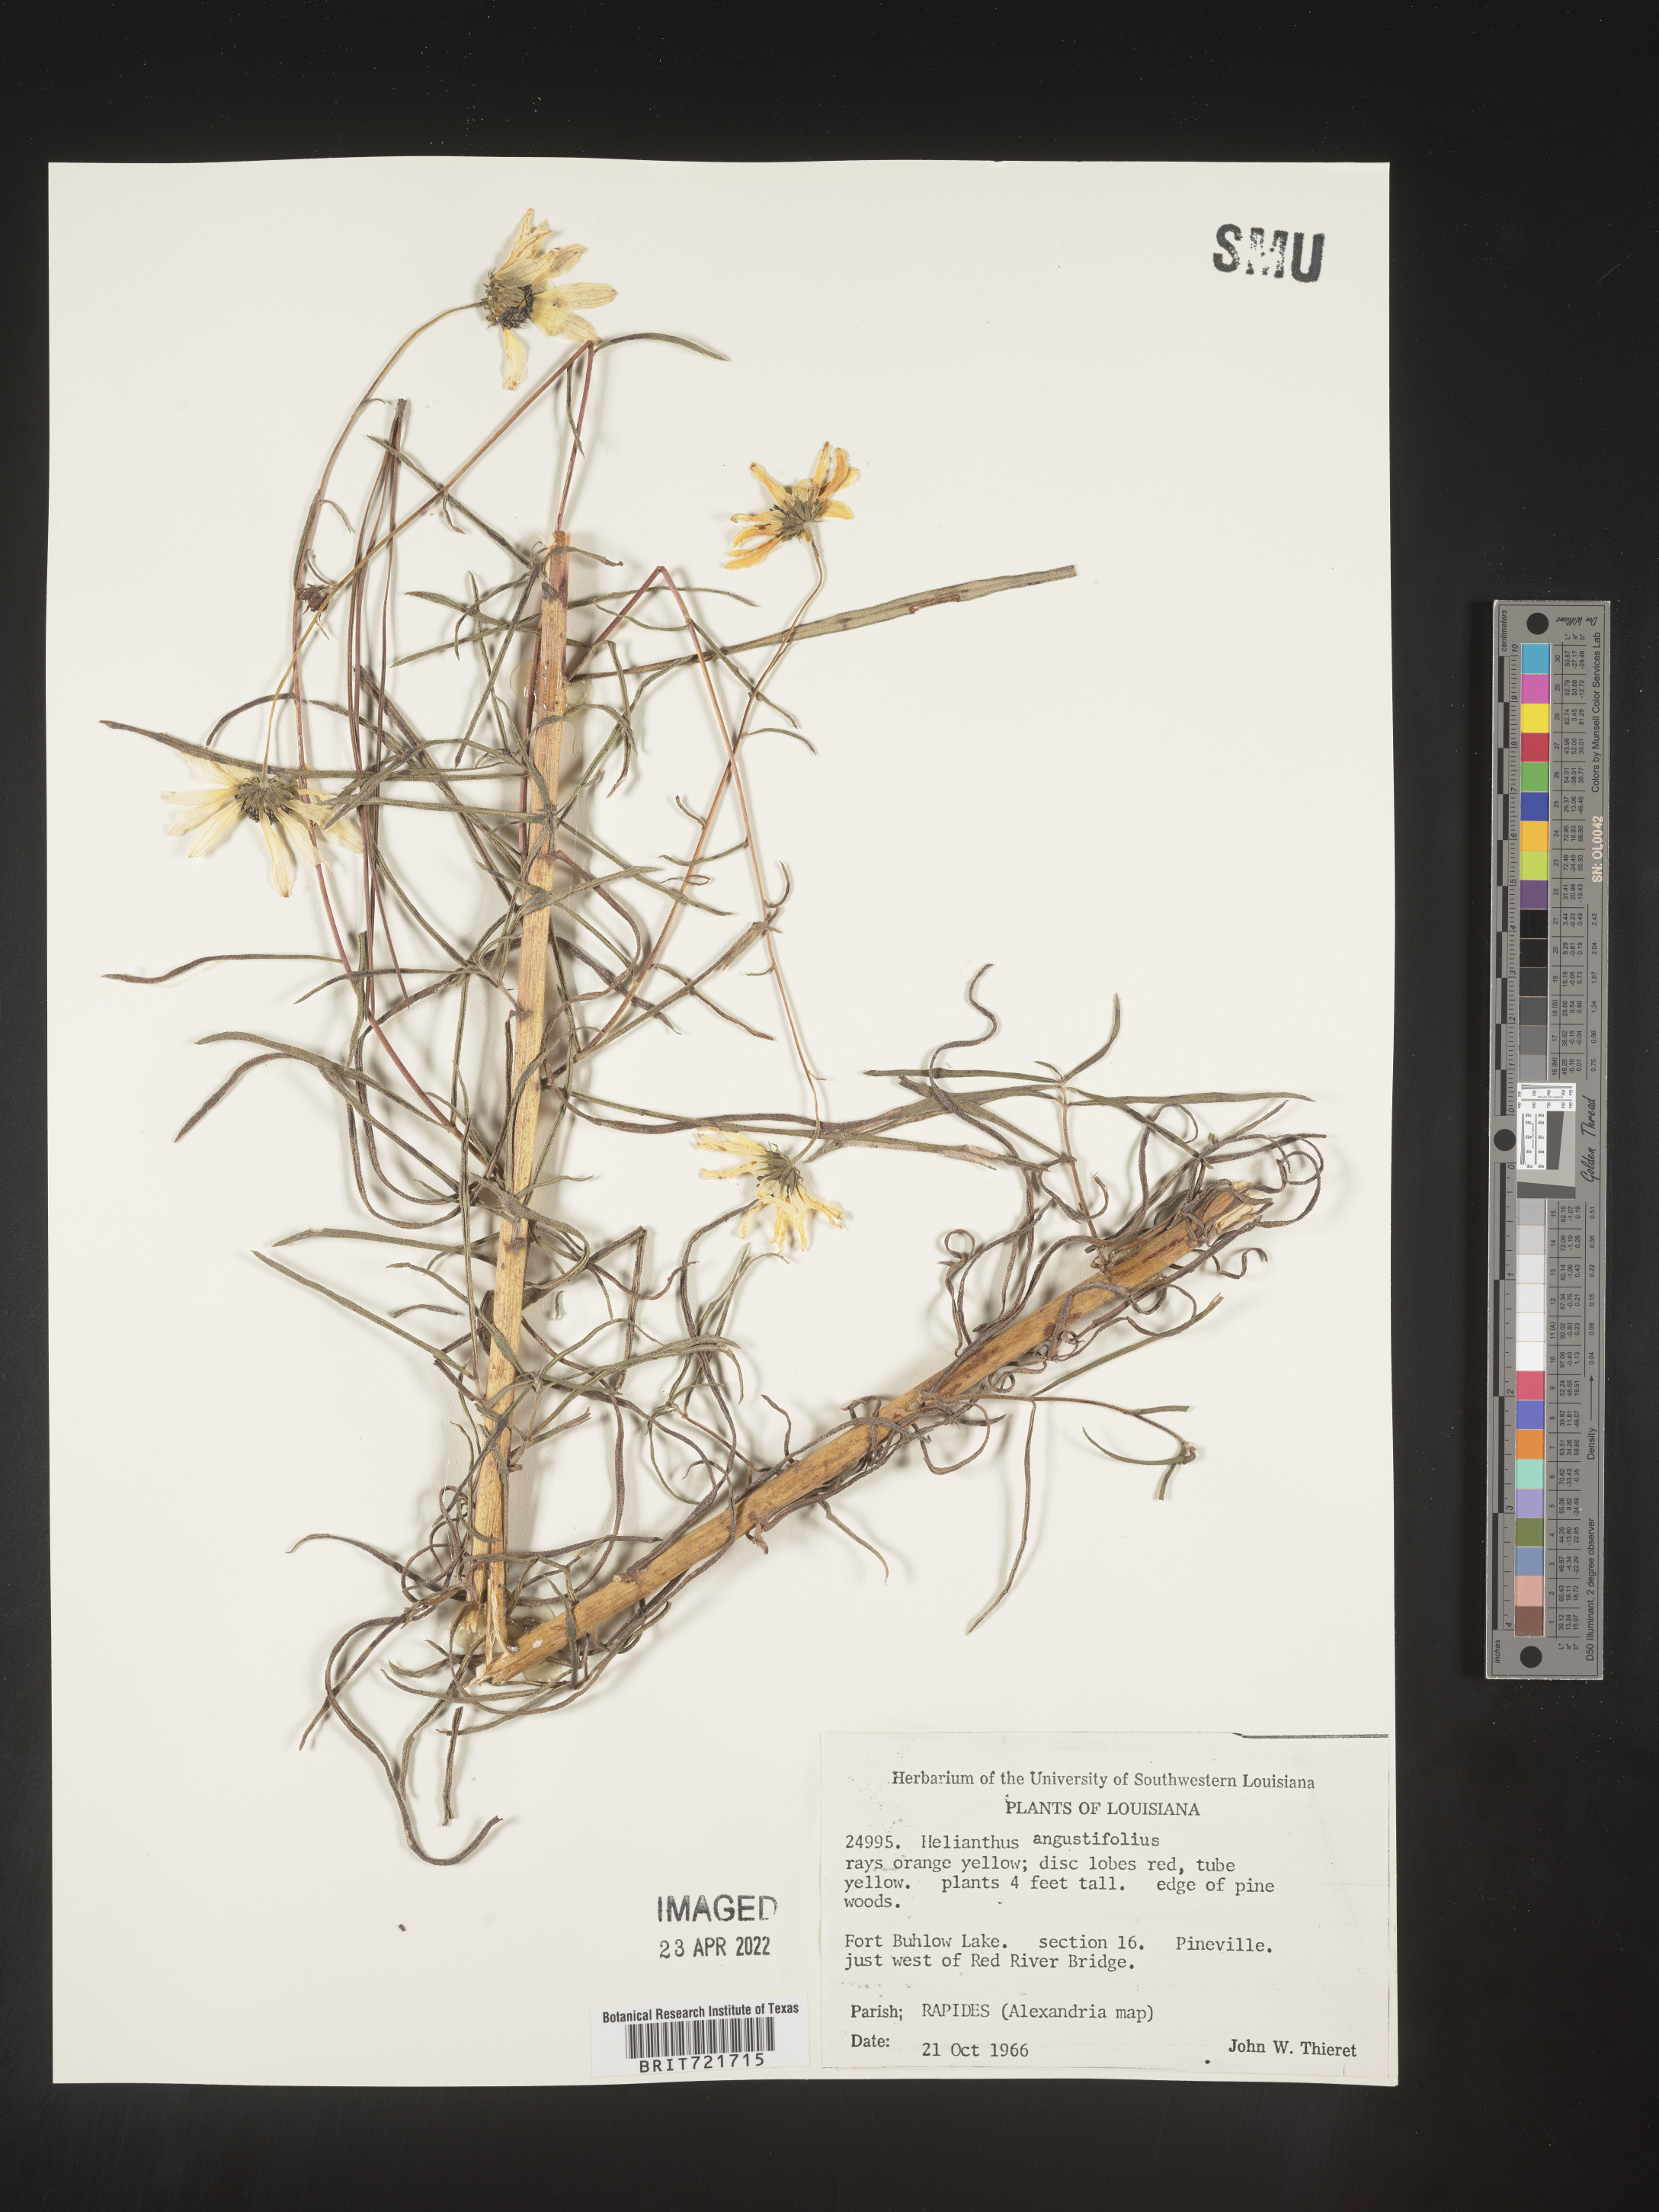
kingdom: Plantae
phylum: Tracheophyta
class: Magnoliopsida
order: Asterales
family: Asteraceae
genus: Helianthus
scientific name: Helianthus angustifolius
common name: Swamp sunflower
